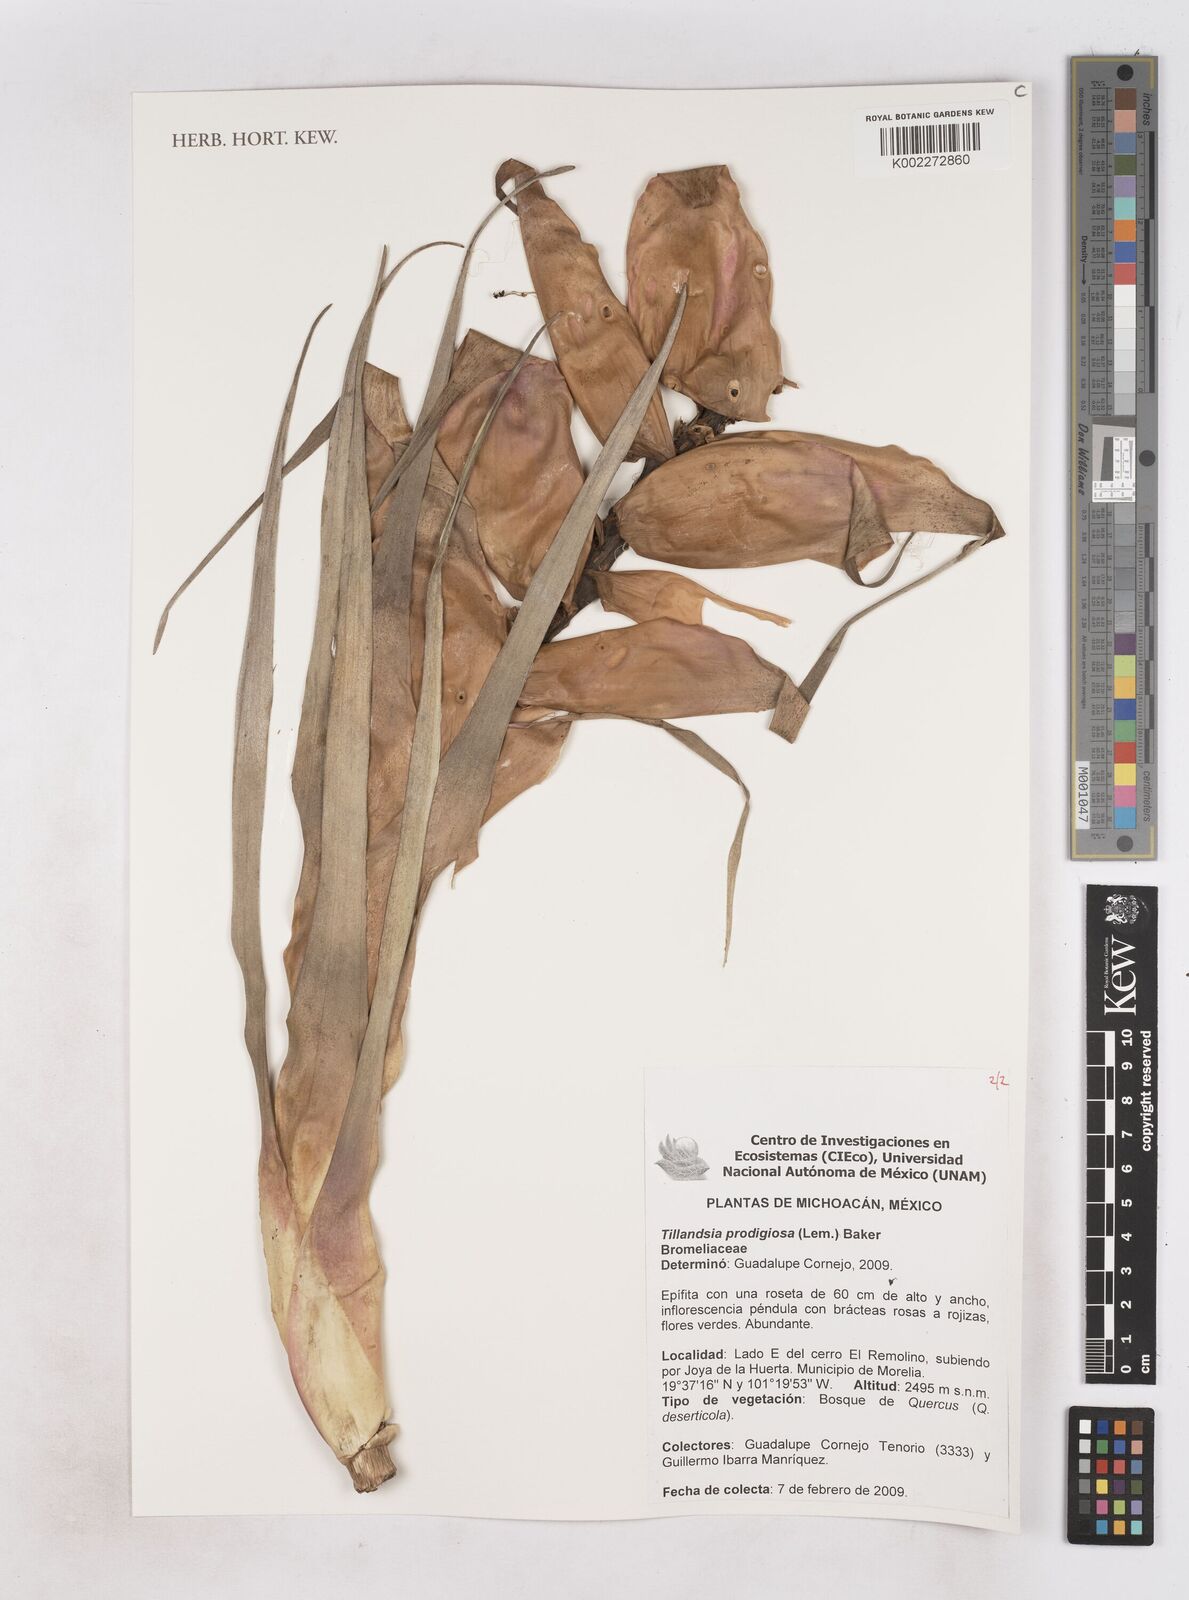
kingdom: Plantae
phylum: Tracheophyta
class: Liliopsida
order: Poales
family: Bromeliaceae
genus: Tillandsia
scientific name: Tillandsia prodigiosa
